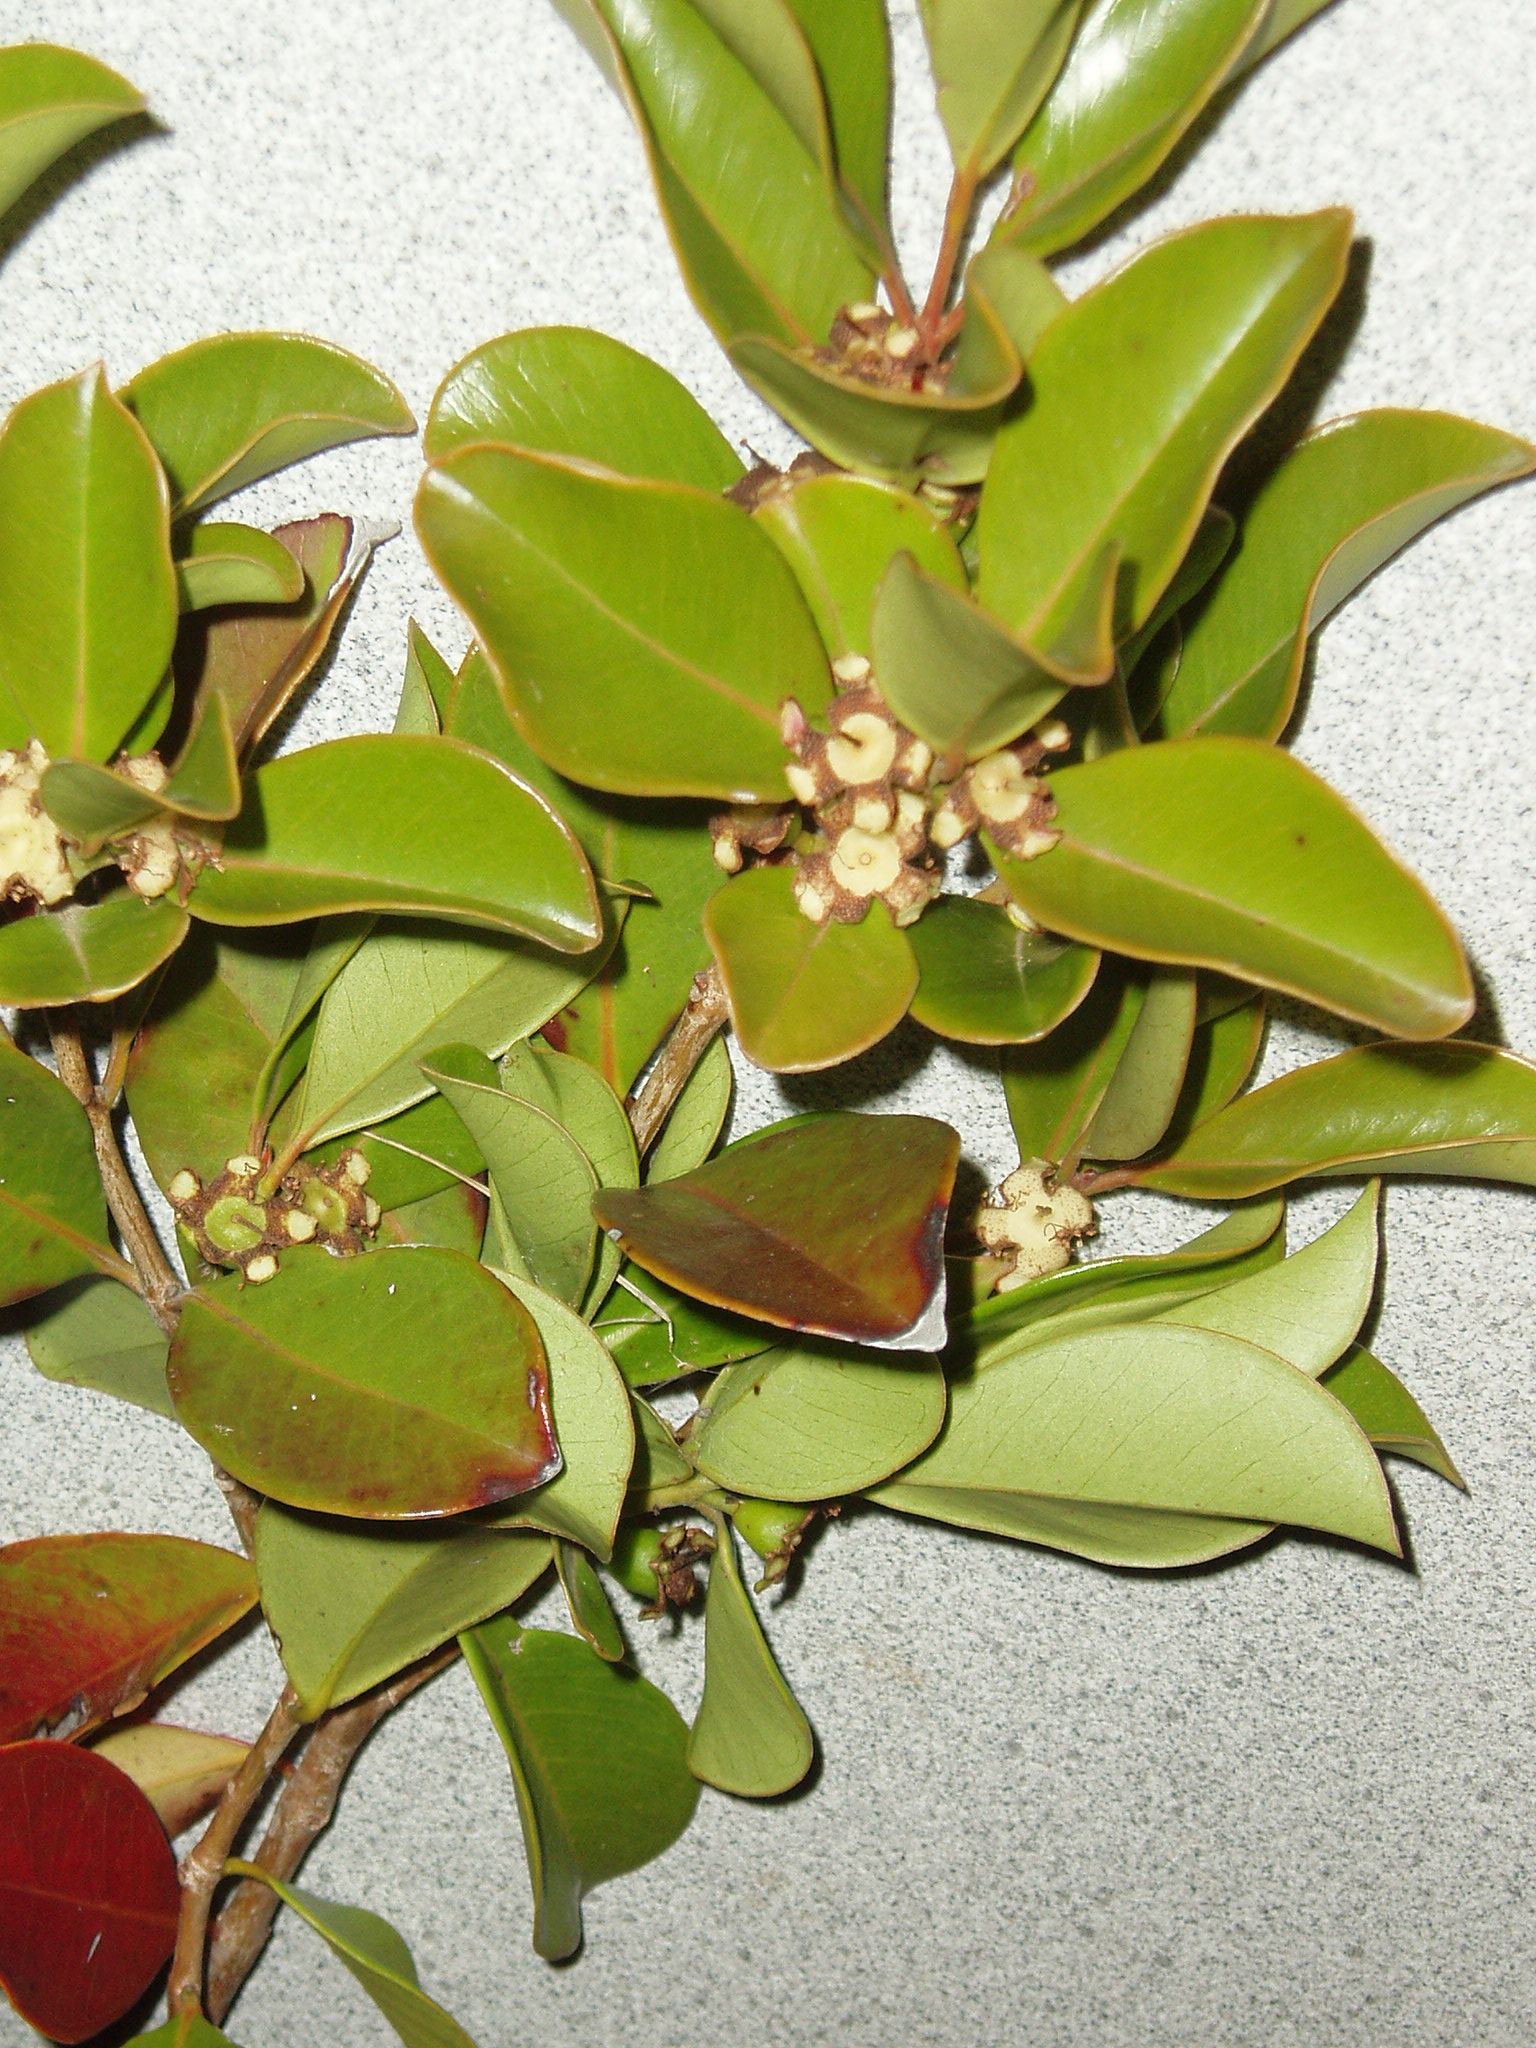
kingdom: Plantae
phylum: Tracheophyta
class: Magnoliopsida
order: Myrtales
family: Myrtaceae
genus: Psidium
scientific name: Psidium cattleianum
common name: Strawberry guava
